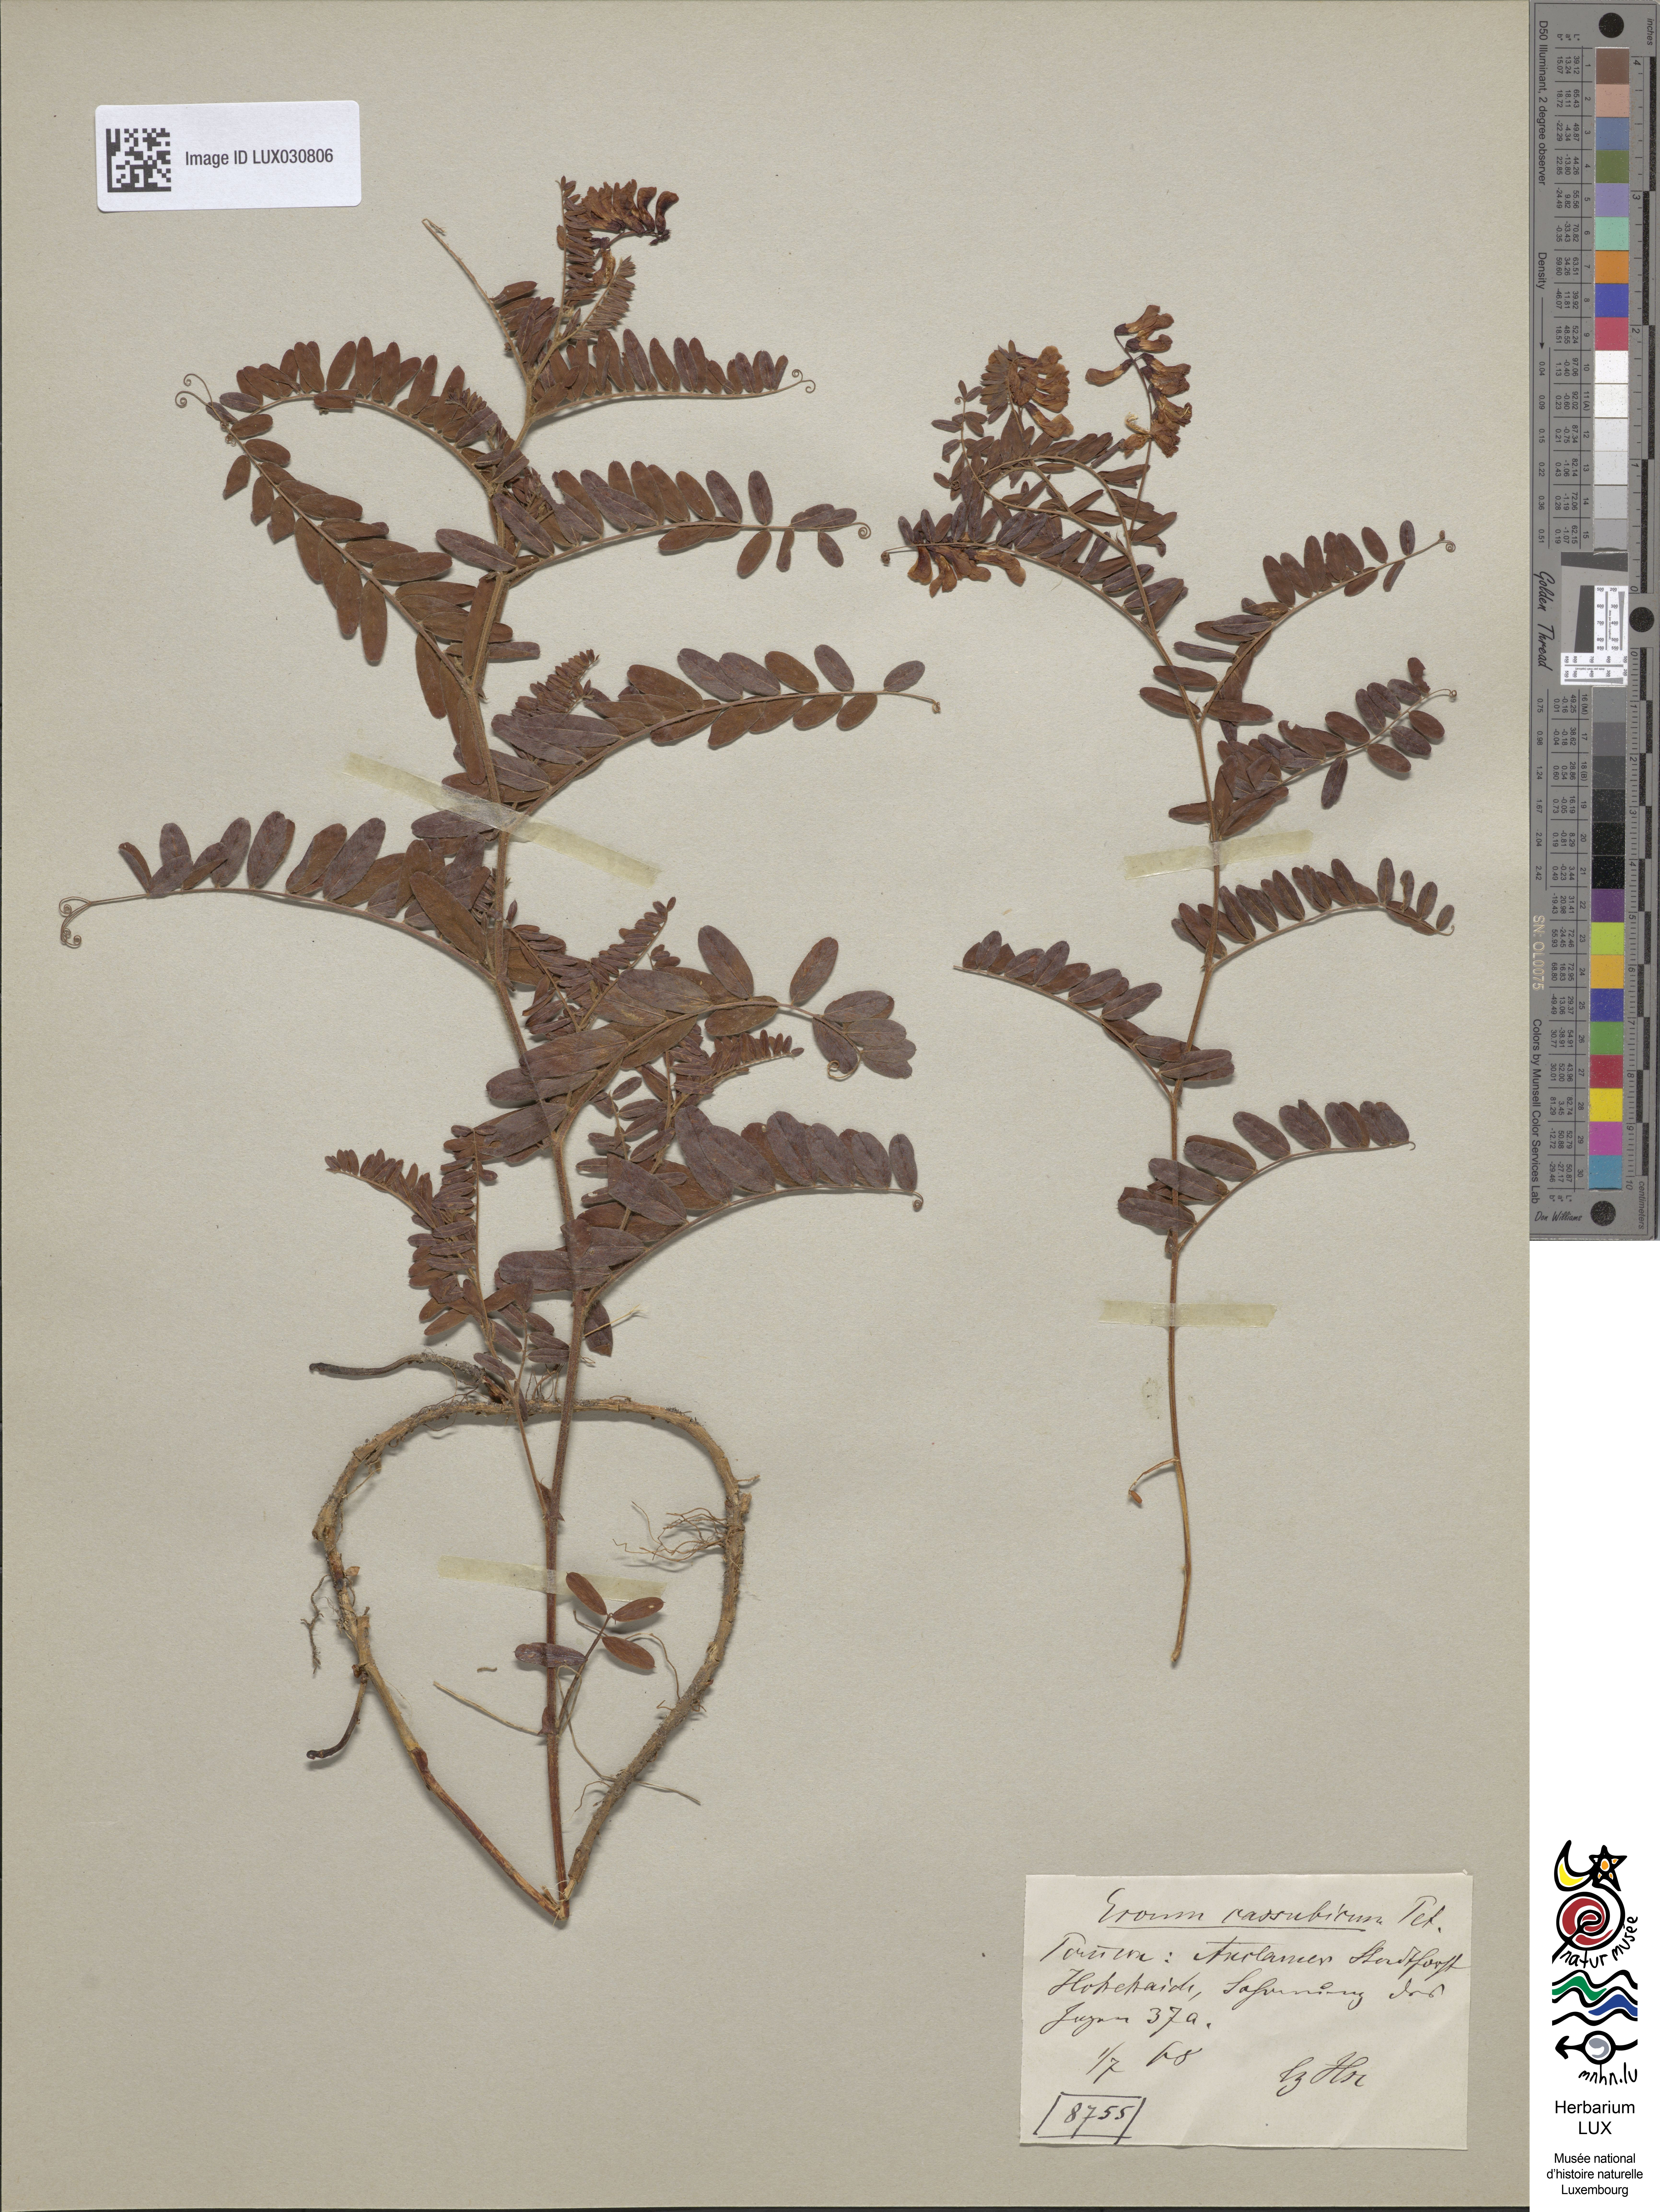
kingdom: Plantae
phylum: Tracheophyta
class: Magnoliopsida
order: Fabales
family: Fabaceae
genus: Vicia
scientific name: Vicia cassubica
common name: Danzig vetch
